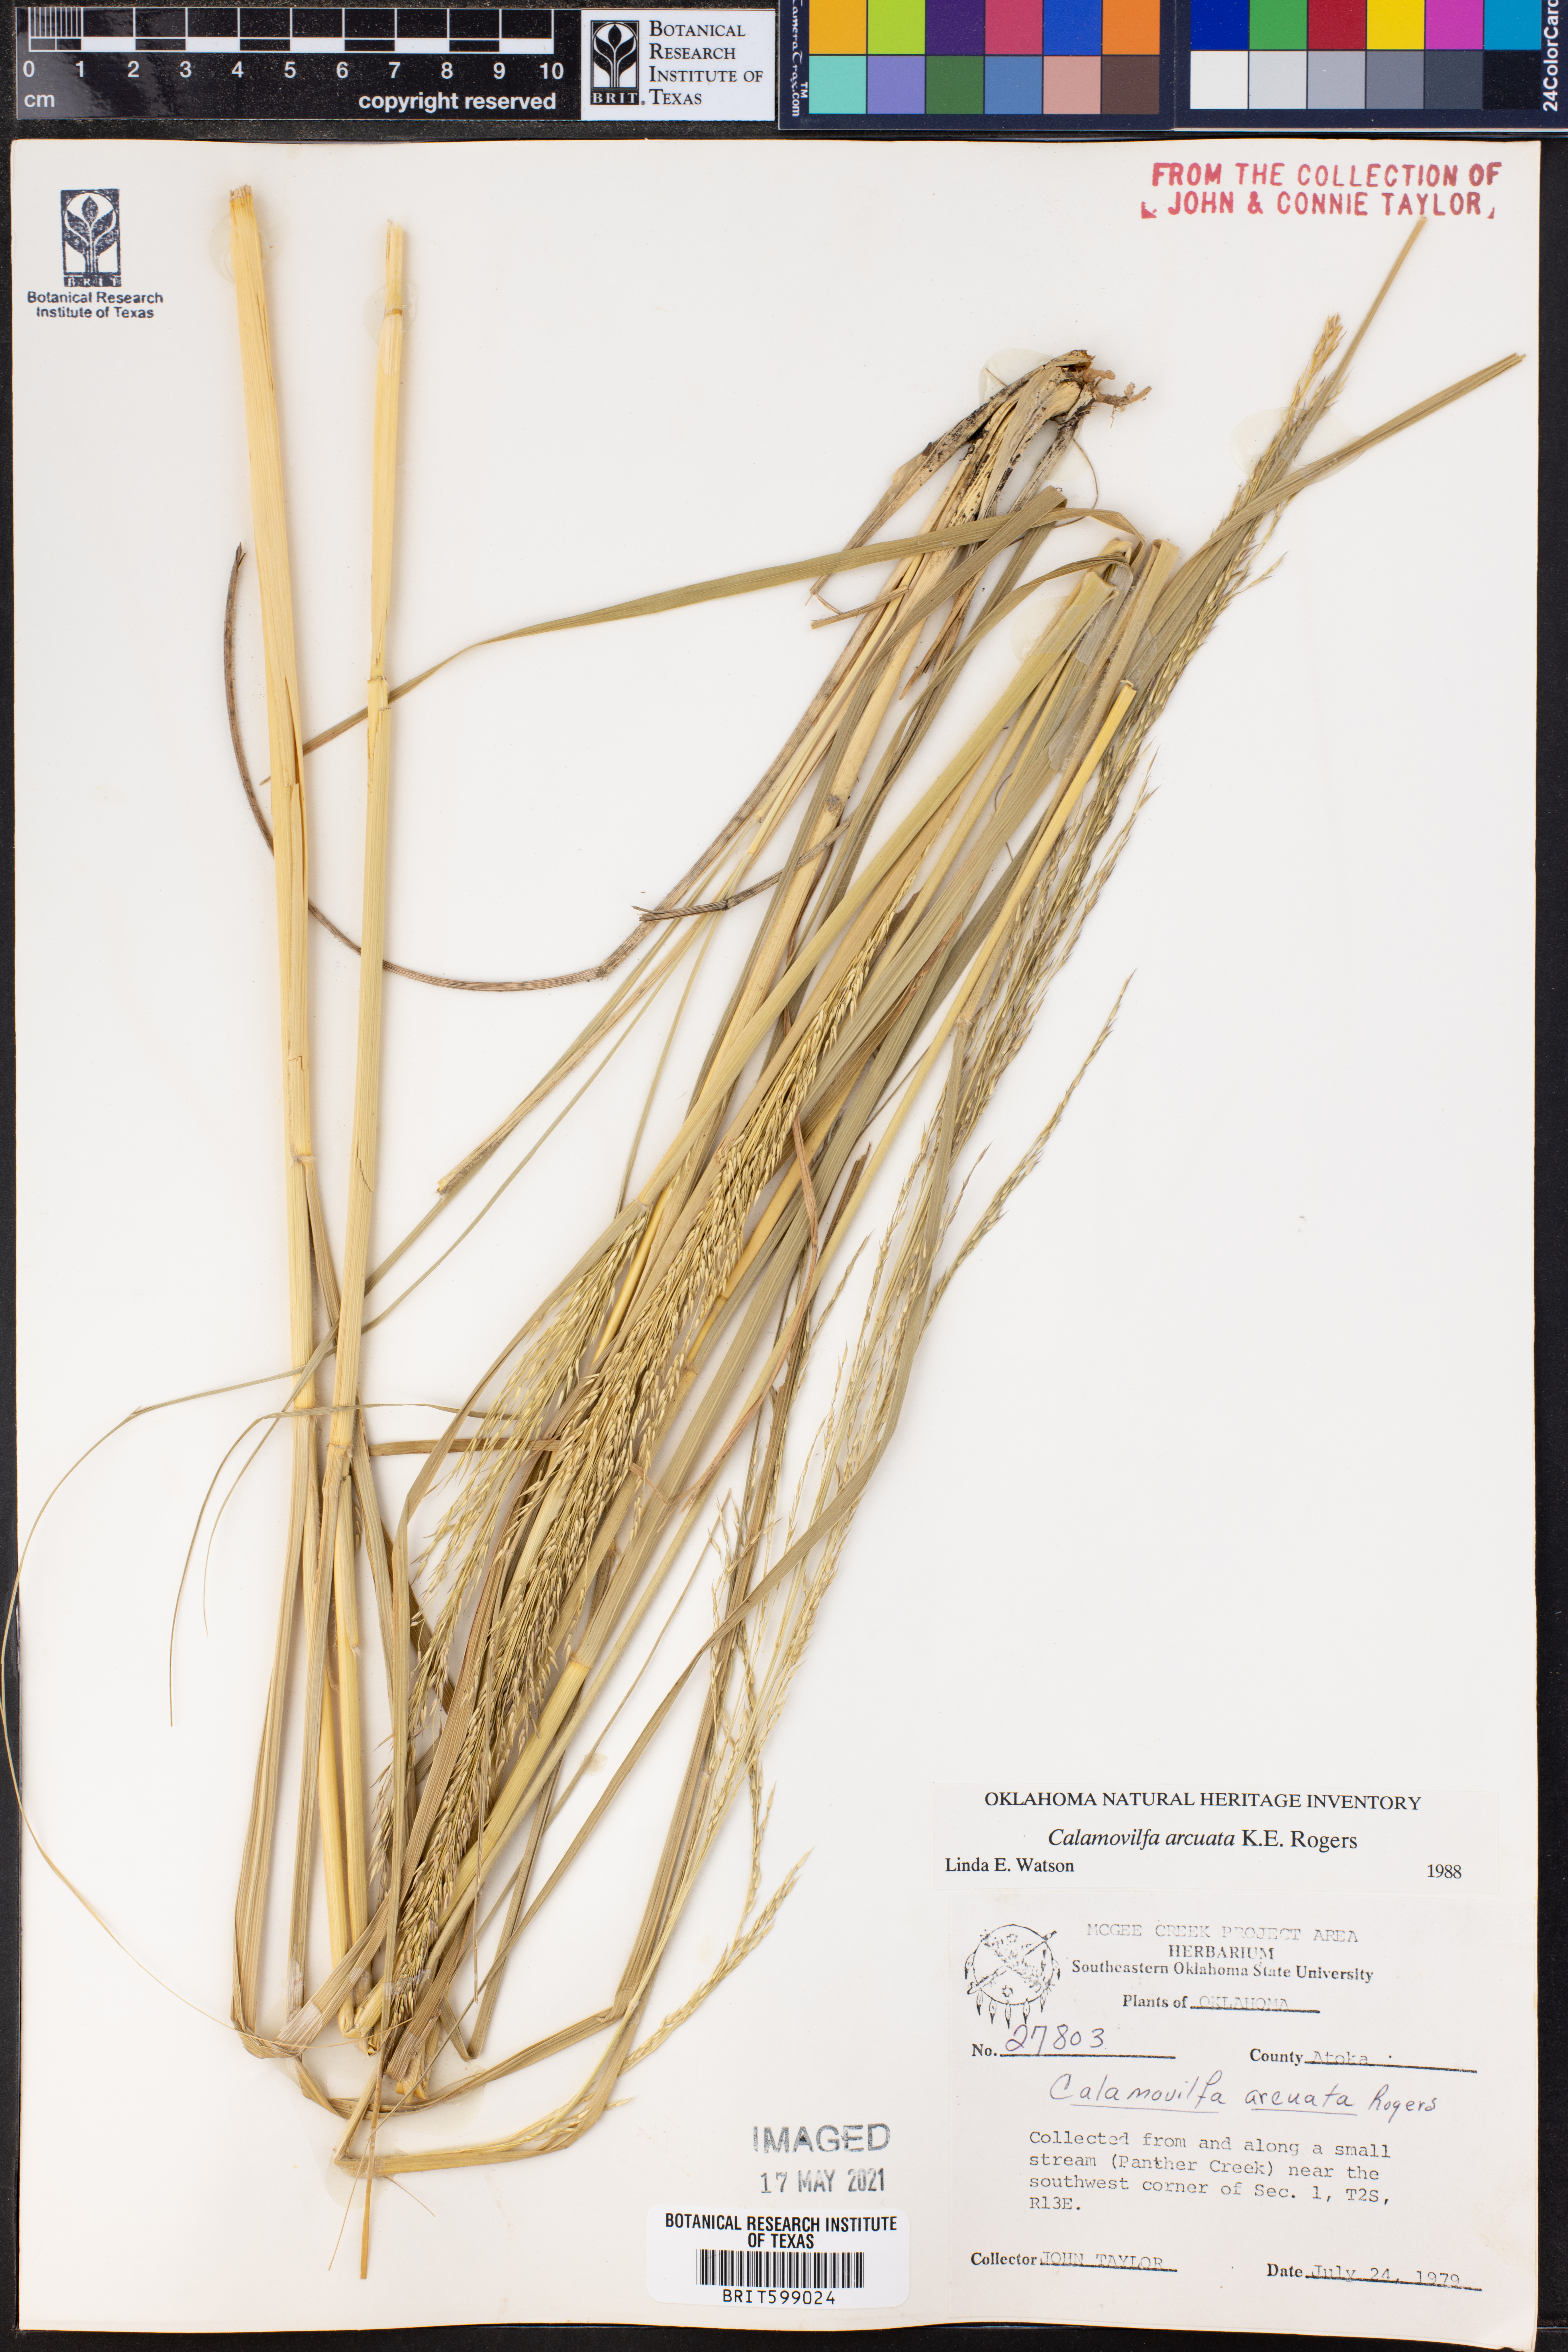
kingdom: Plantae
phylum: Tracheophyta
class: Liliopsida
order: Poales
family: Poaceae
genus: Sporobolus
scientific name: Sporobolus arcuatus
